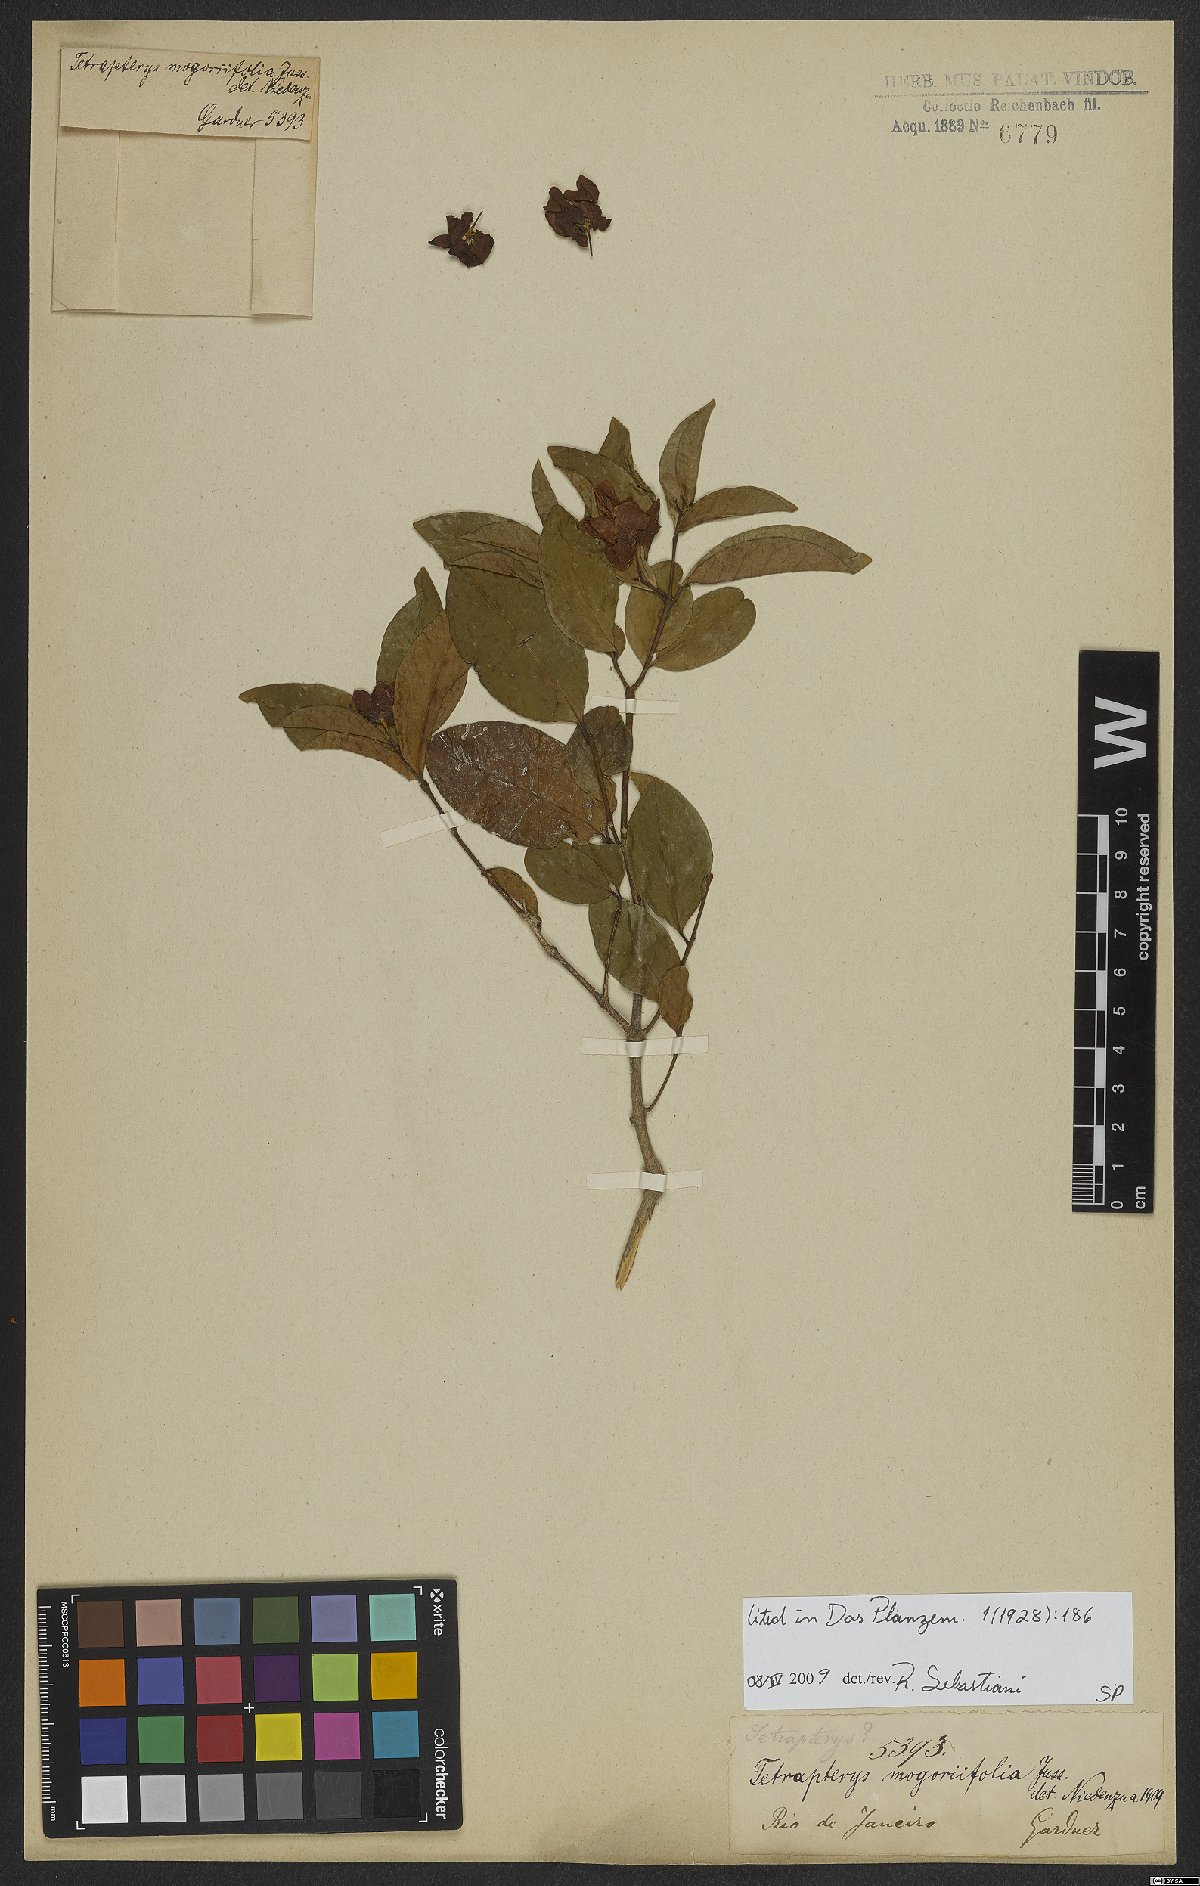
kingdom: Plantae
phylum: Tracheophyta
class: Magnoliopsida
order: Malpighiales
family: Malpighiaceae
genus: Niedenzuella
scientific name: Niedenzuella mogoriifolia
